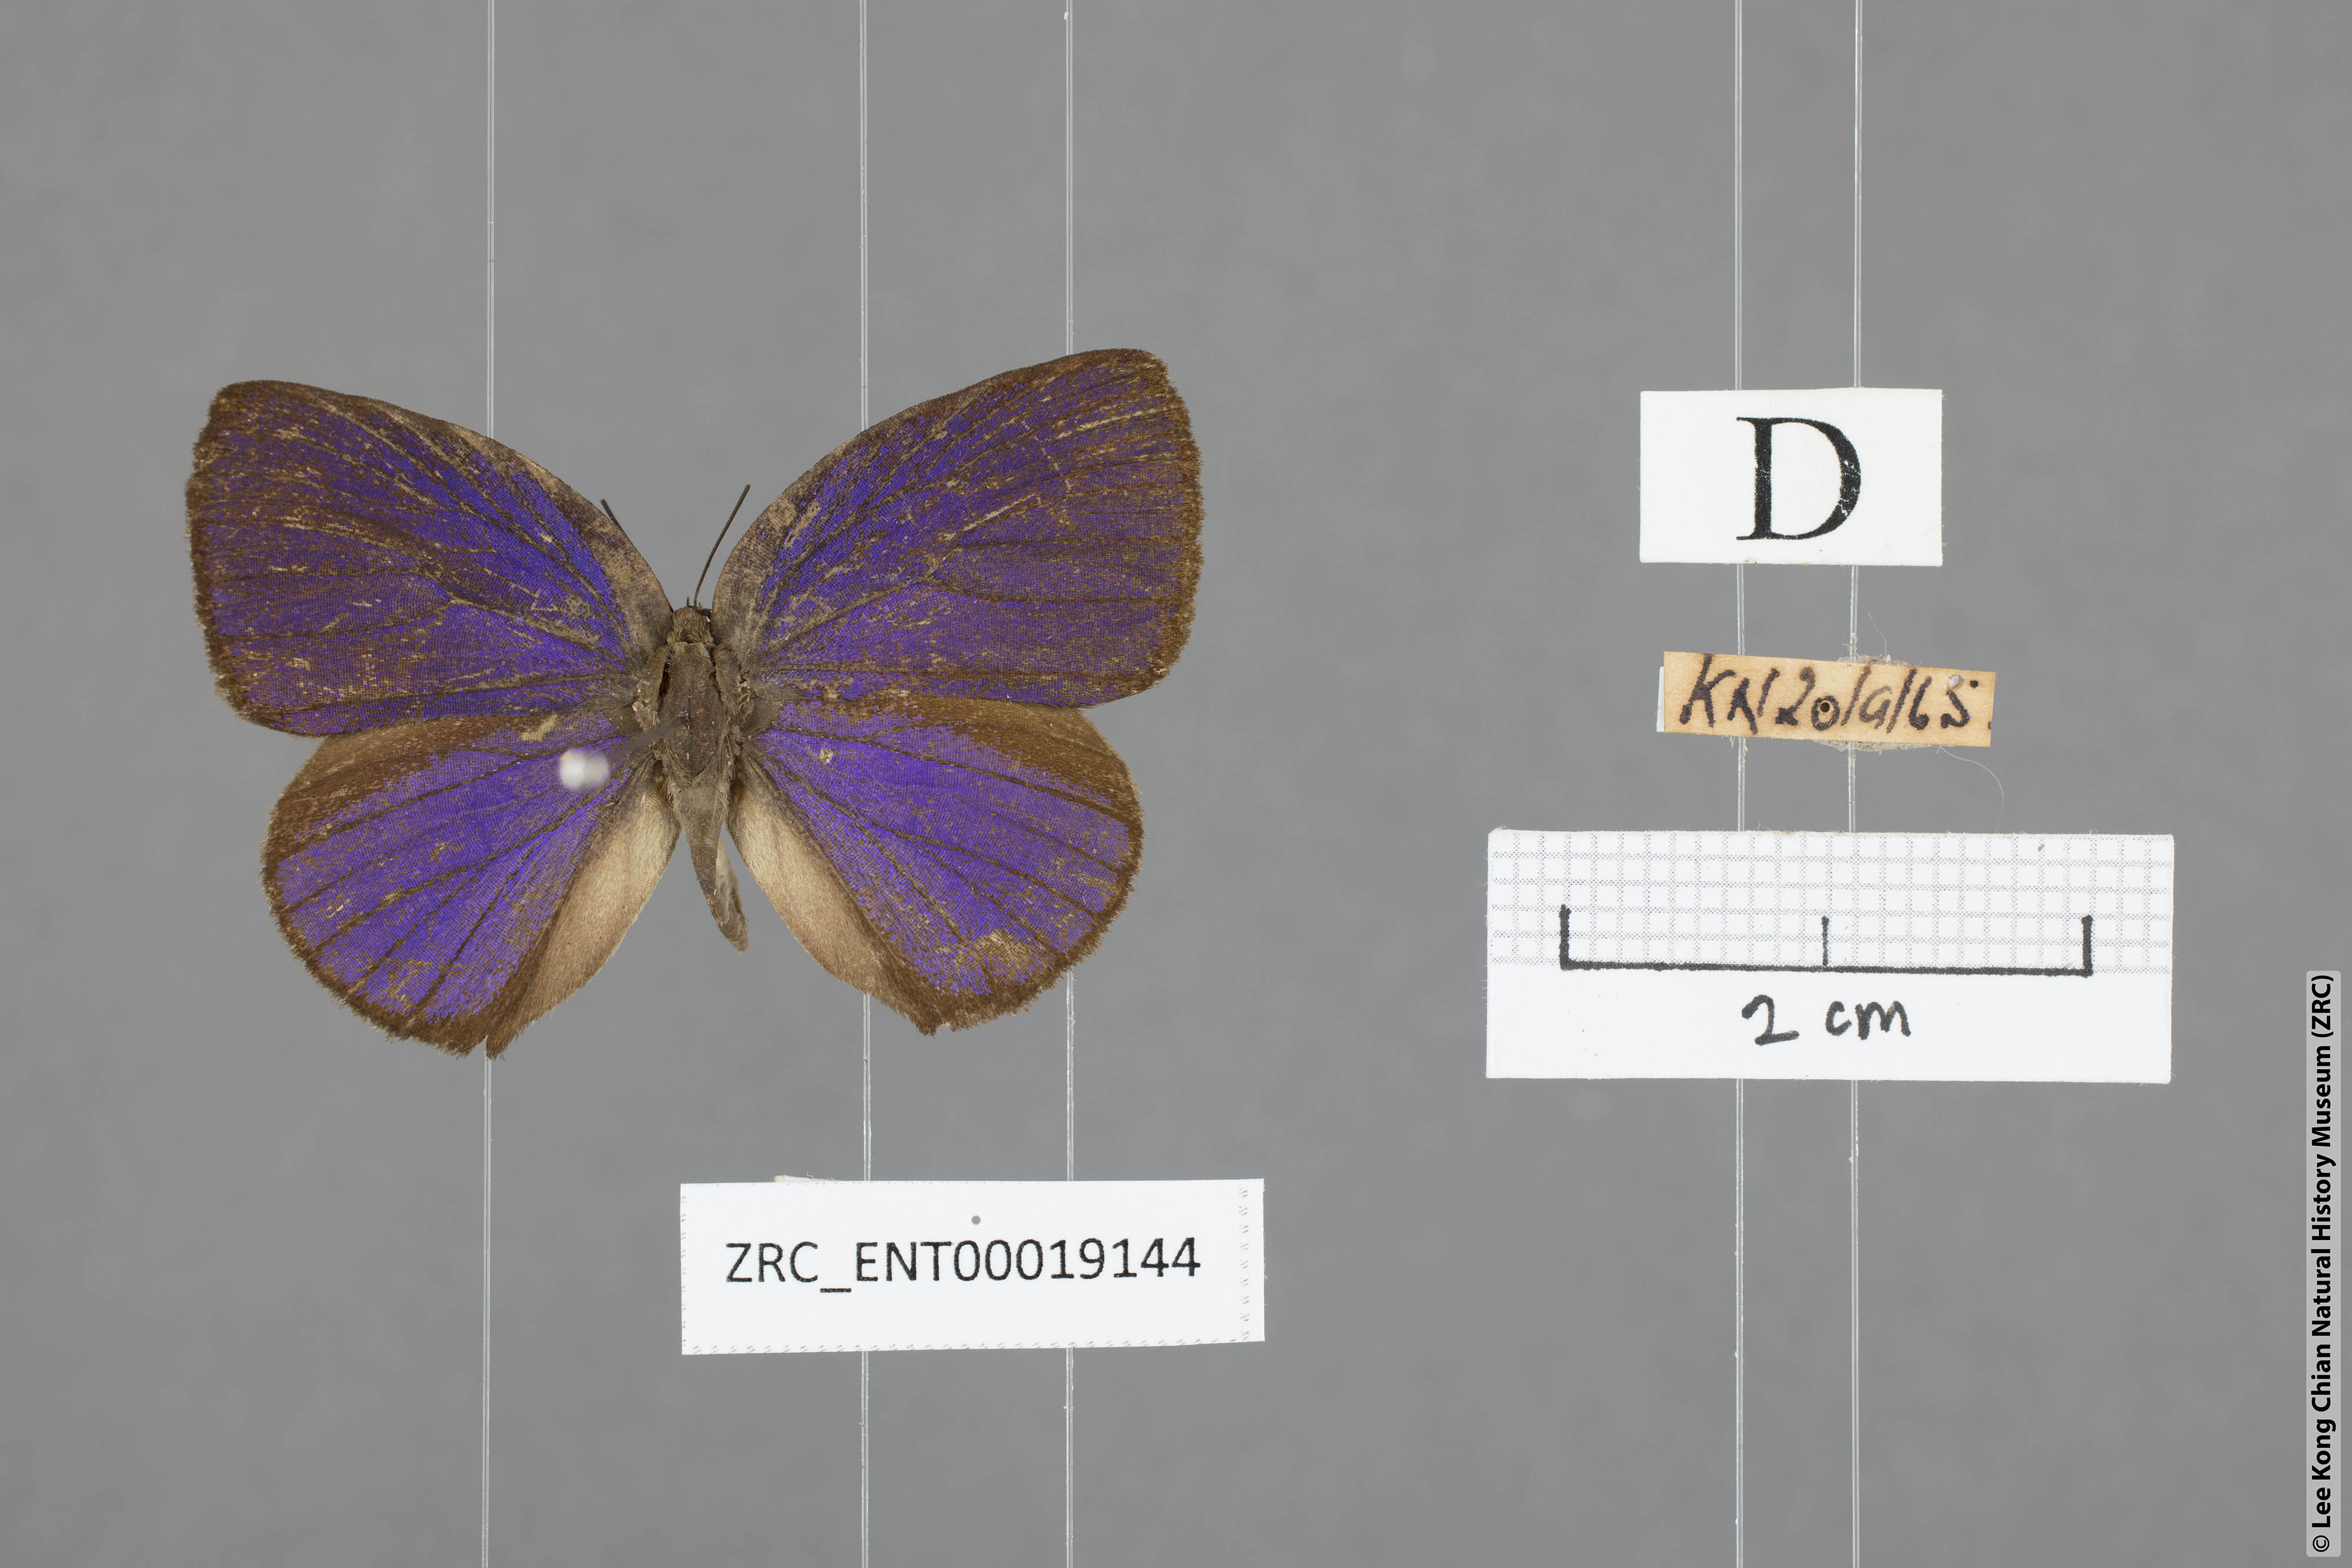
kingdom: Animalia
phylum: Arthropoda
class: Insecta
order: Lepidoptera
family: Lycaenidae
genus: Arhopala
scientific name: Arhopala amphimuta
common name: Broad yellow oakblue
